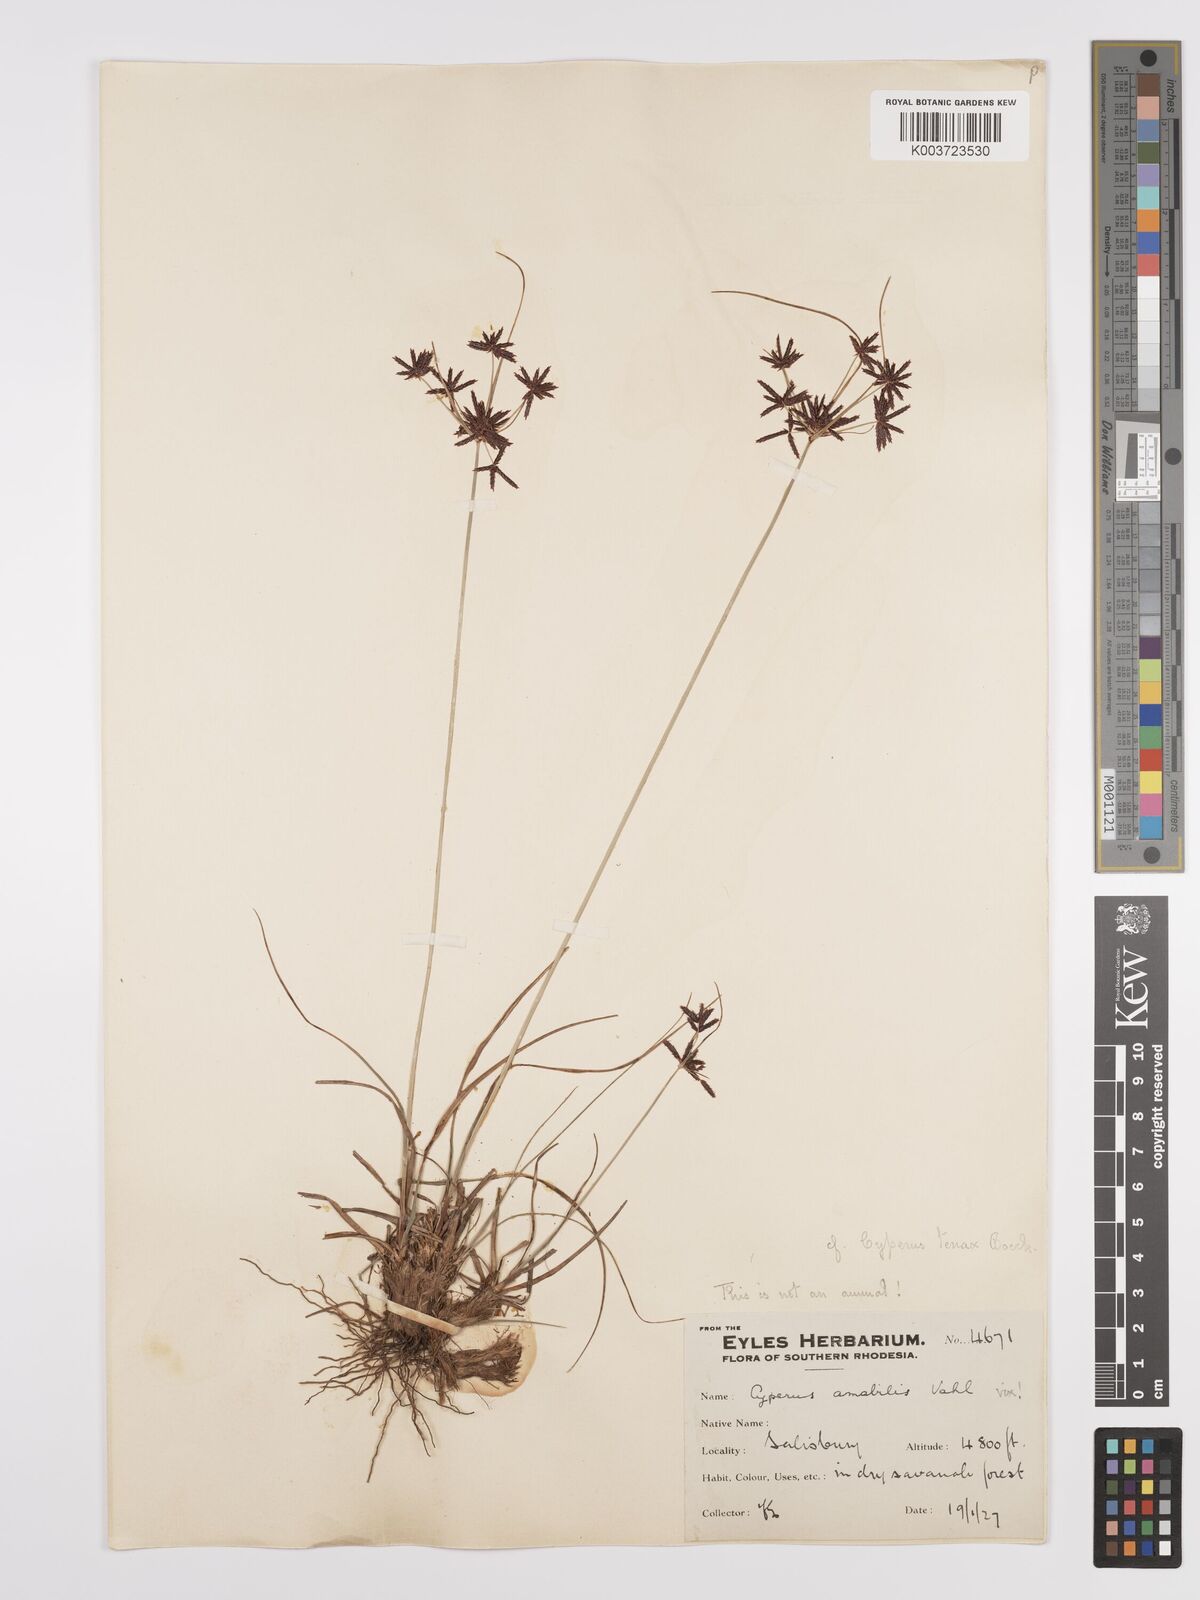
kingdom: Plantae
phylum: Tracheophyta
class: Liliopsida
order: Poales
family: Cyperaceae
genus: Cyperus
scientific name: Cyperus tenax
